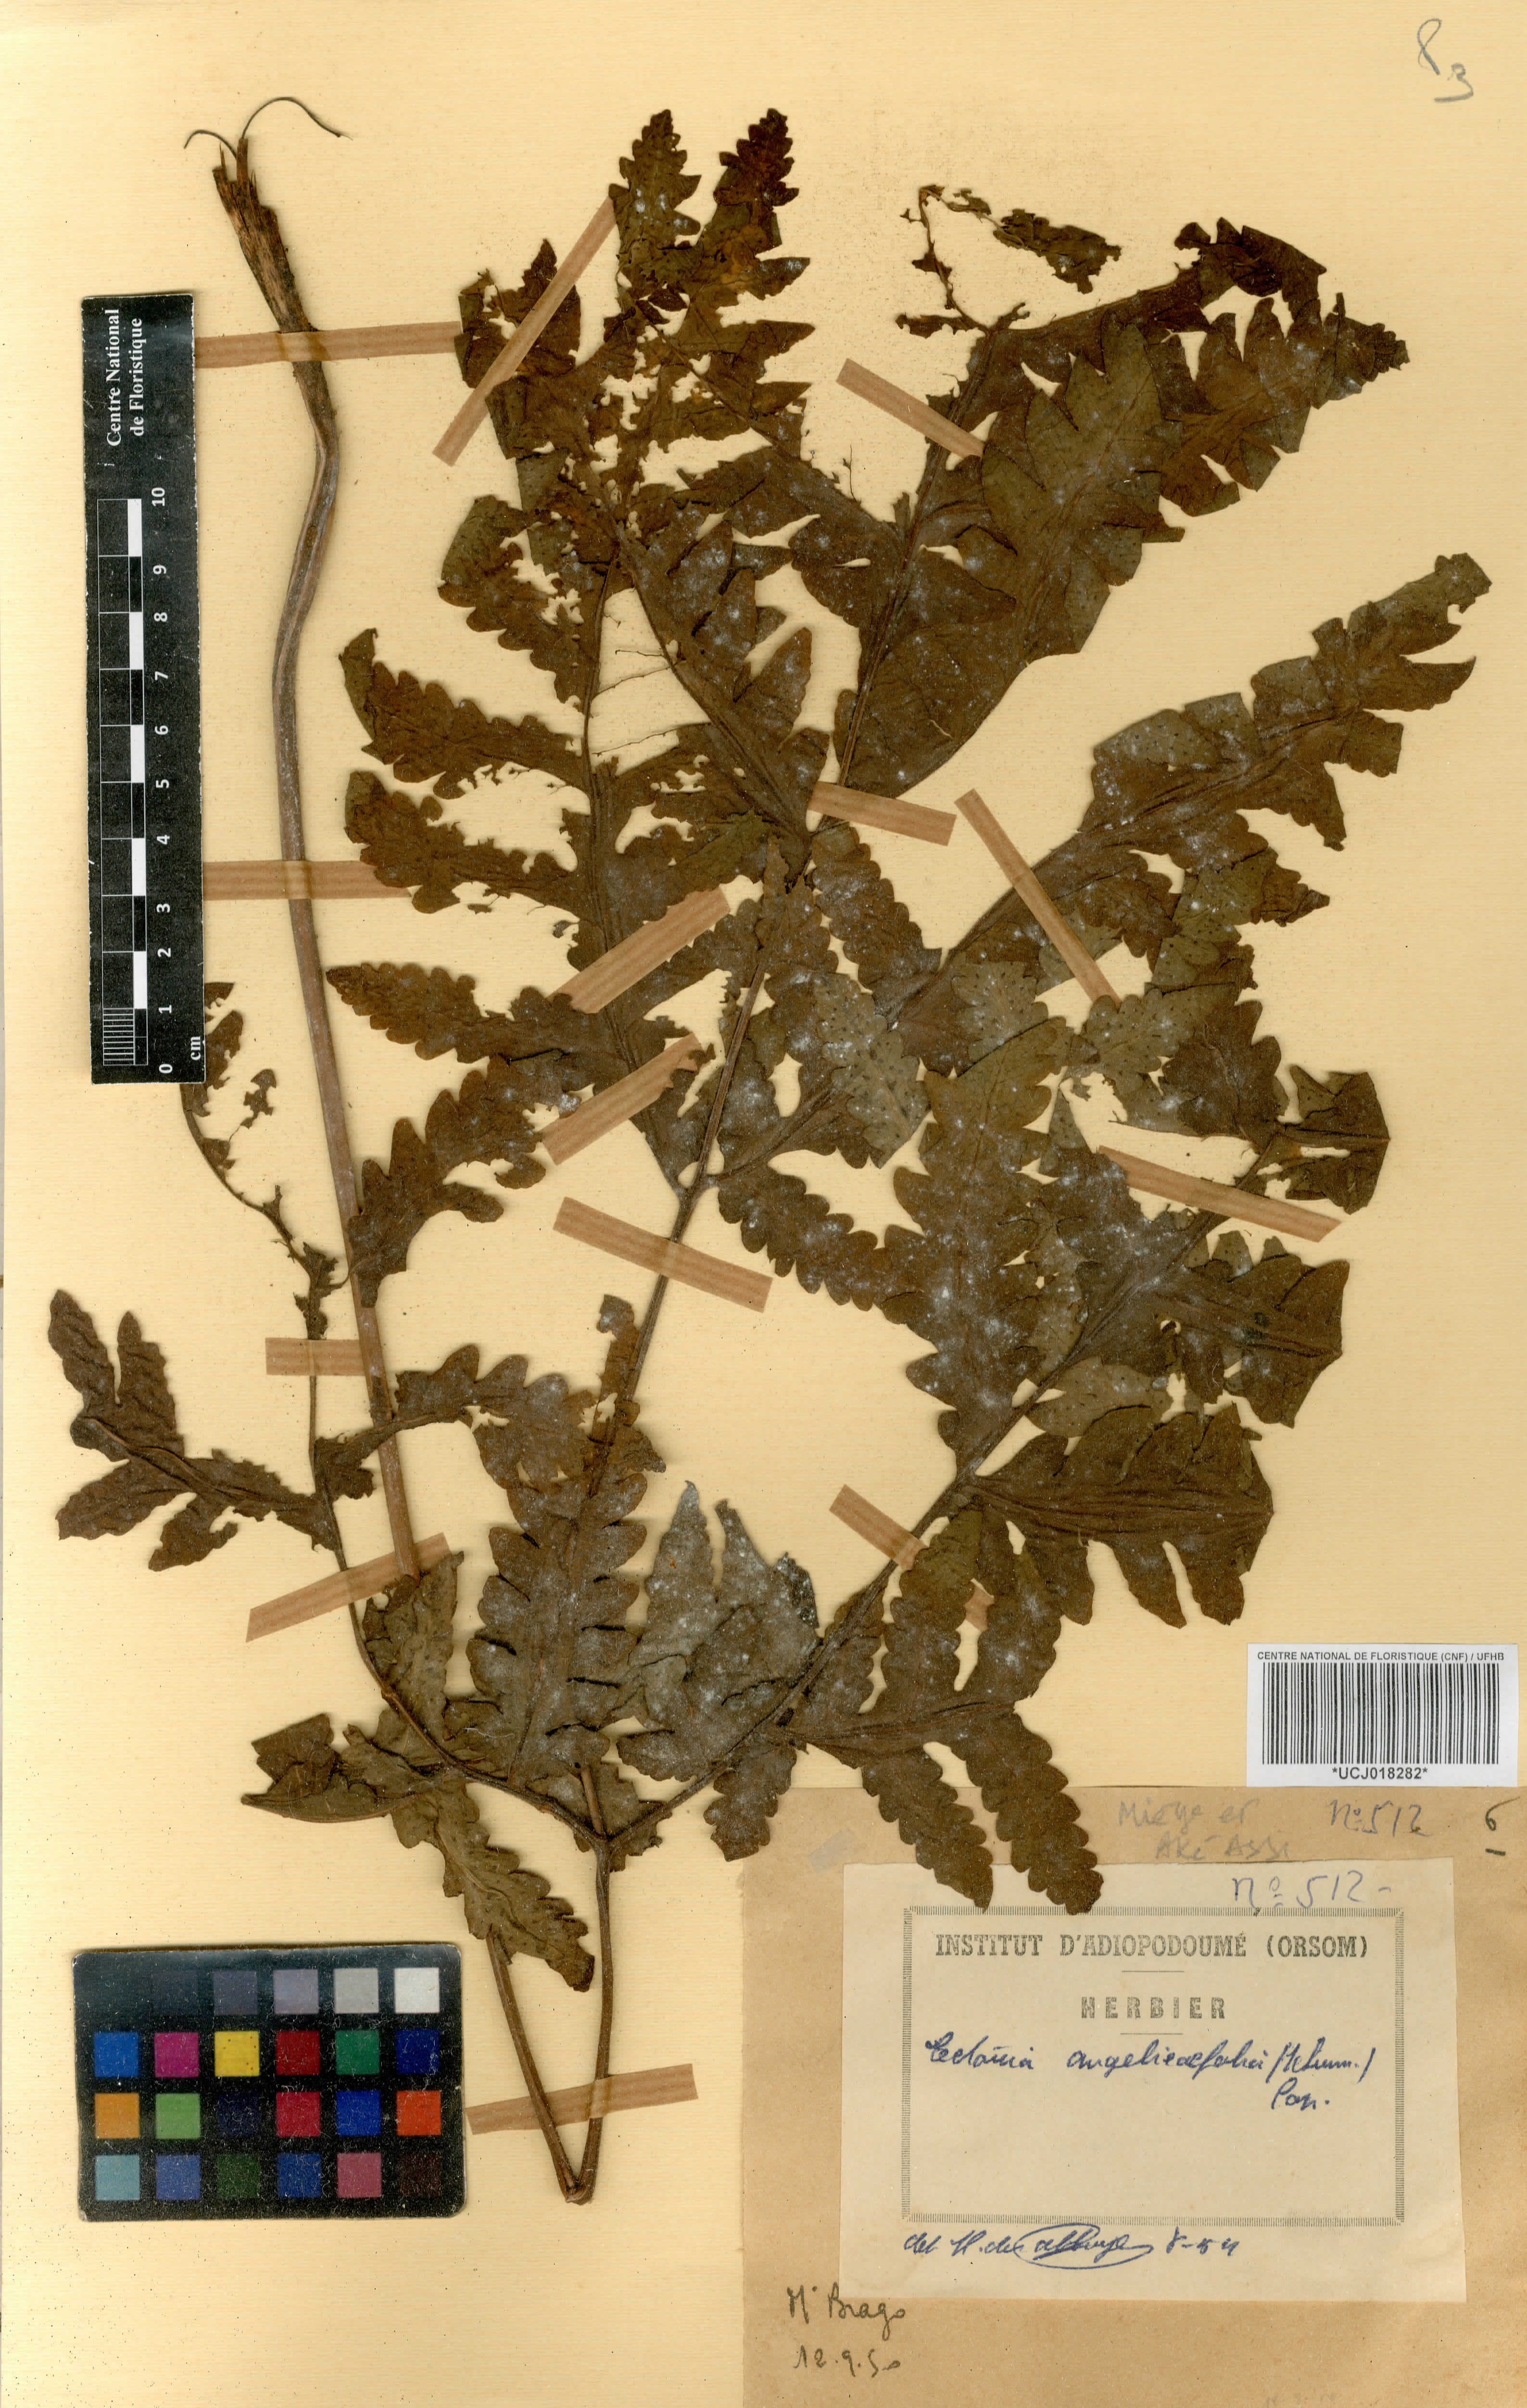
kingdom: Plantae
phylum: Tracheophyta
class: Polypodiopsida
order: Polypodiales
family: Tectariaceae
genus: Tectaria
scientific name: Tectaria angelicifolia
